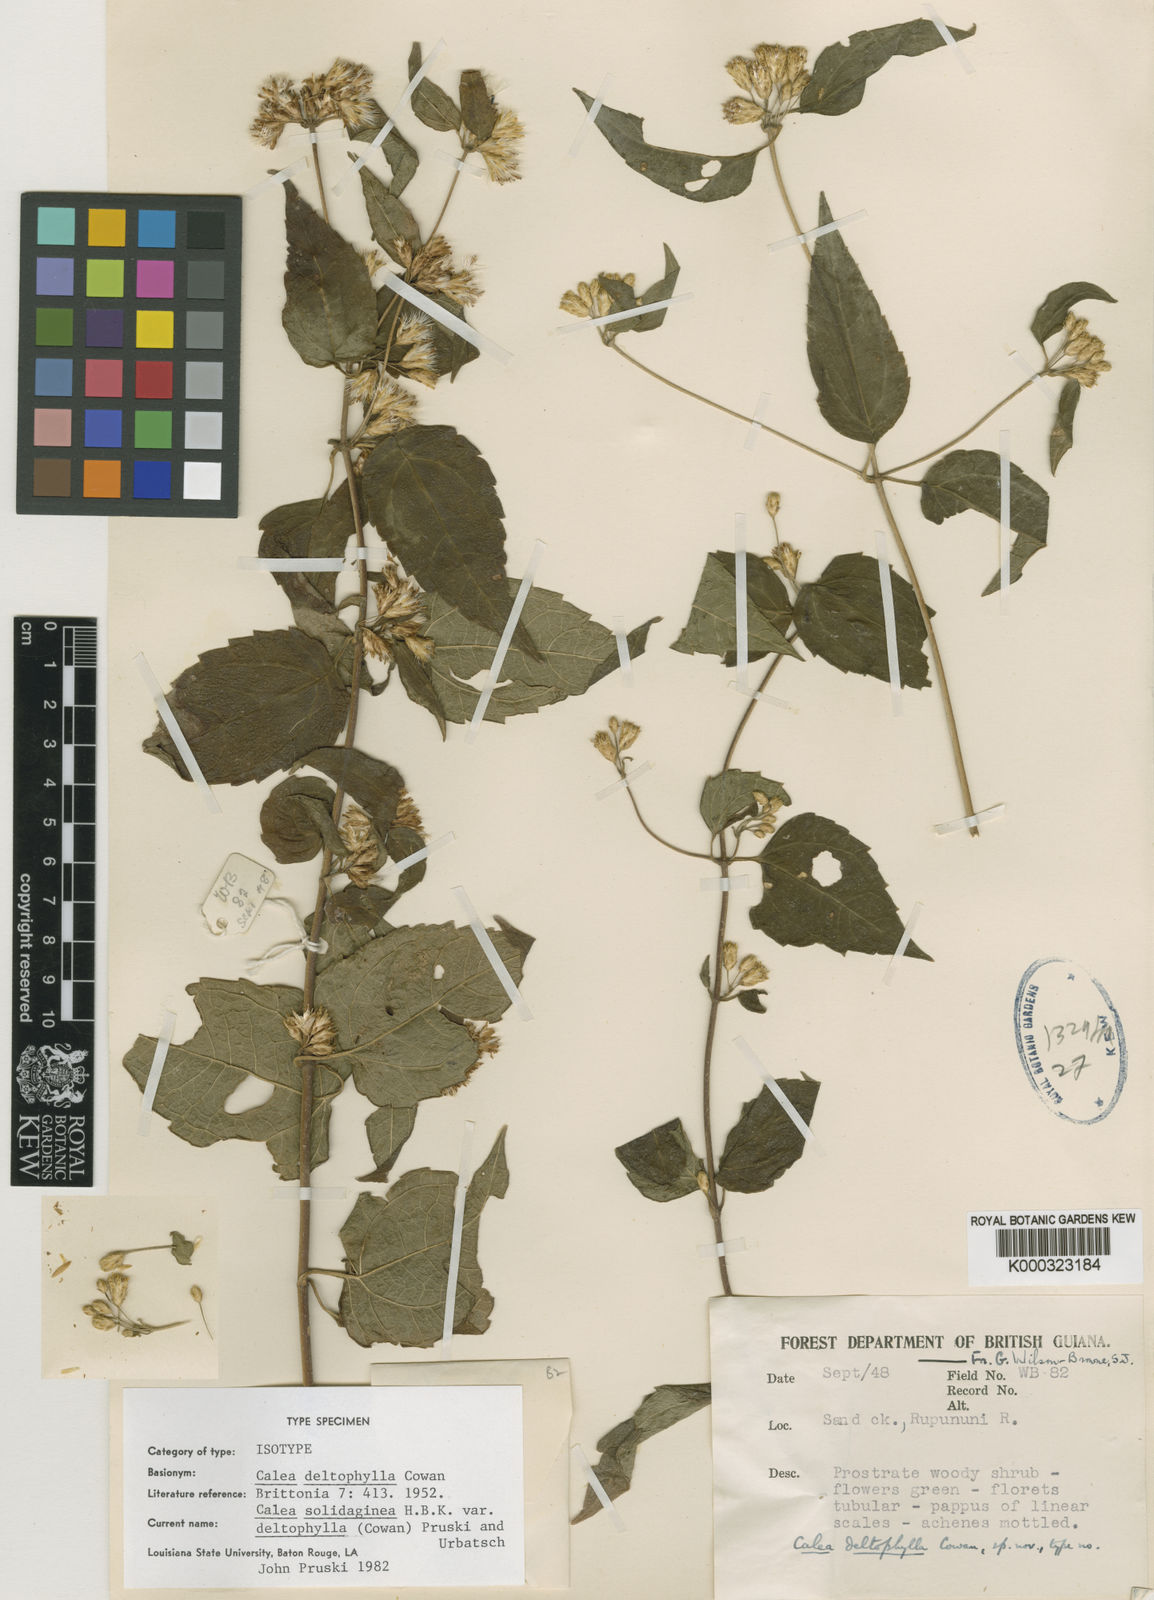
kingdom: Plantae
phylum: Tracheophyta
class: Magnoliopsida
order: Asterales
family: Asteraceae
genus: Calea
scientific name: Calea solidaginea
